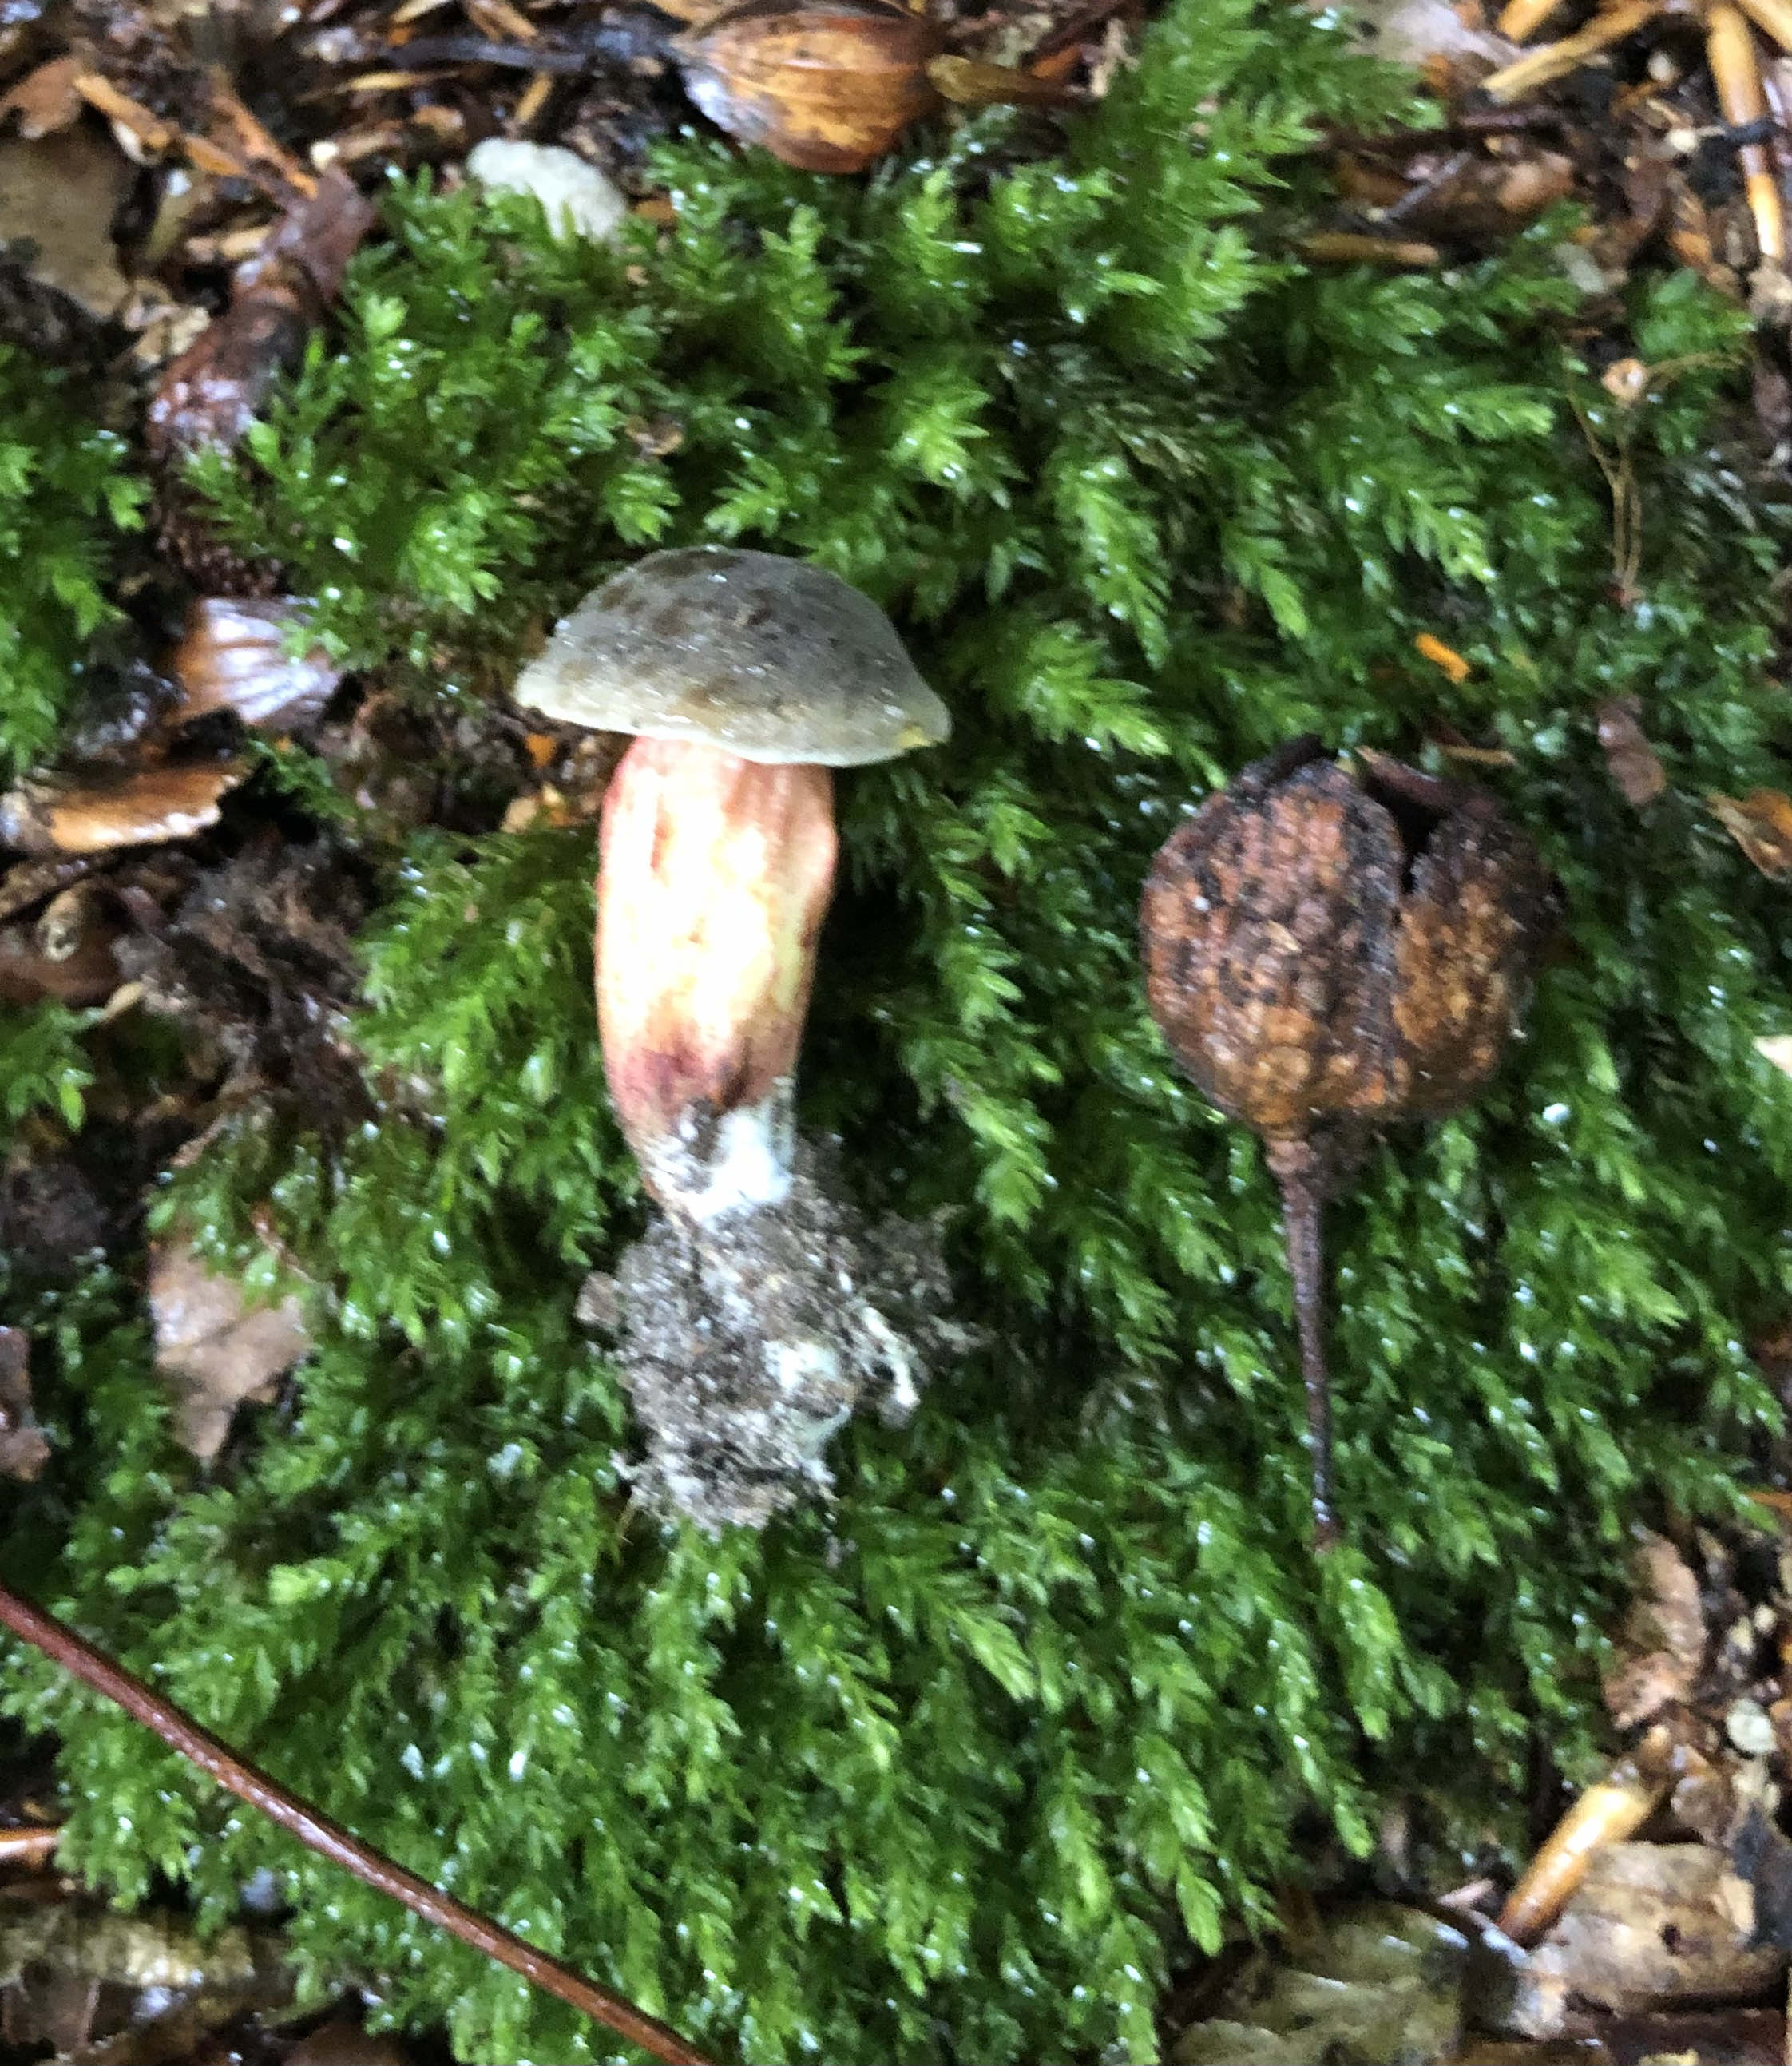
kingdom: Fungi
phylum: Basidiomycota
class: Agaricomycetes
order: Boletales
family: Boletaceae
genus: Xerocomellus
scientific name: Xerocomellus
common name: dværgrørhat
